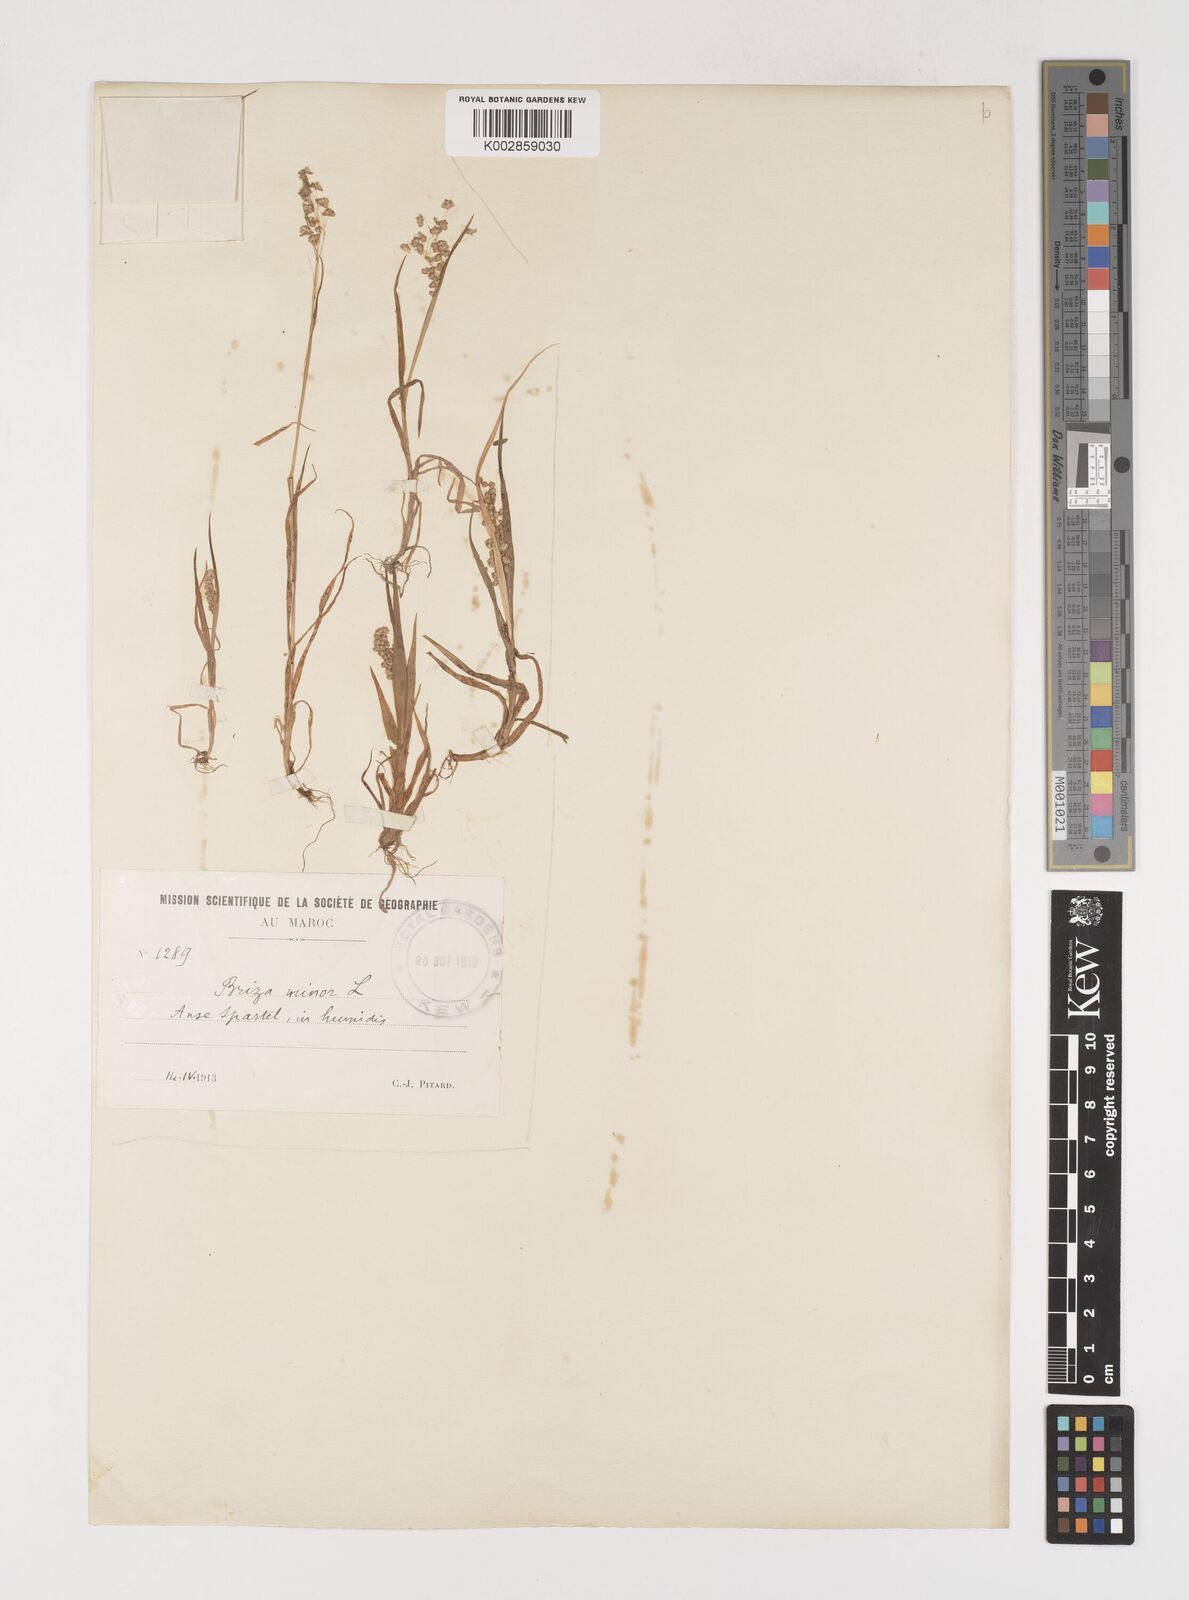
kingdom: Plantae
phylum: Tracheophyta
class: Liliopsida
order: Poales
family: Poaceae
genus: Briza
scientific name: Briza minor
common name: Lesser quaking-grass
